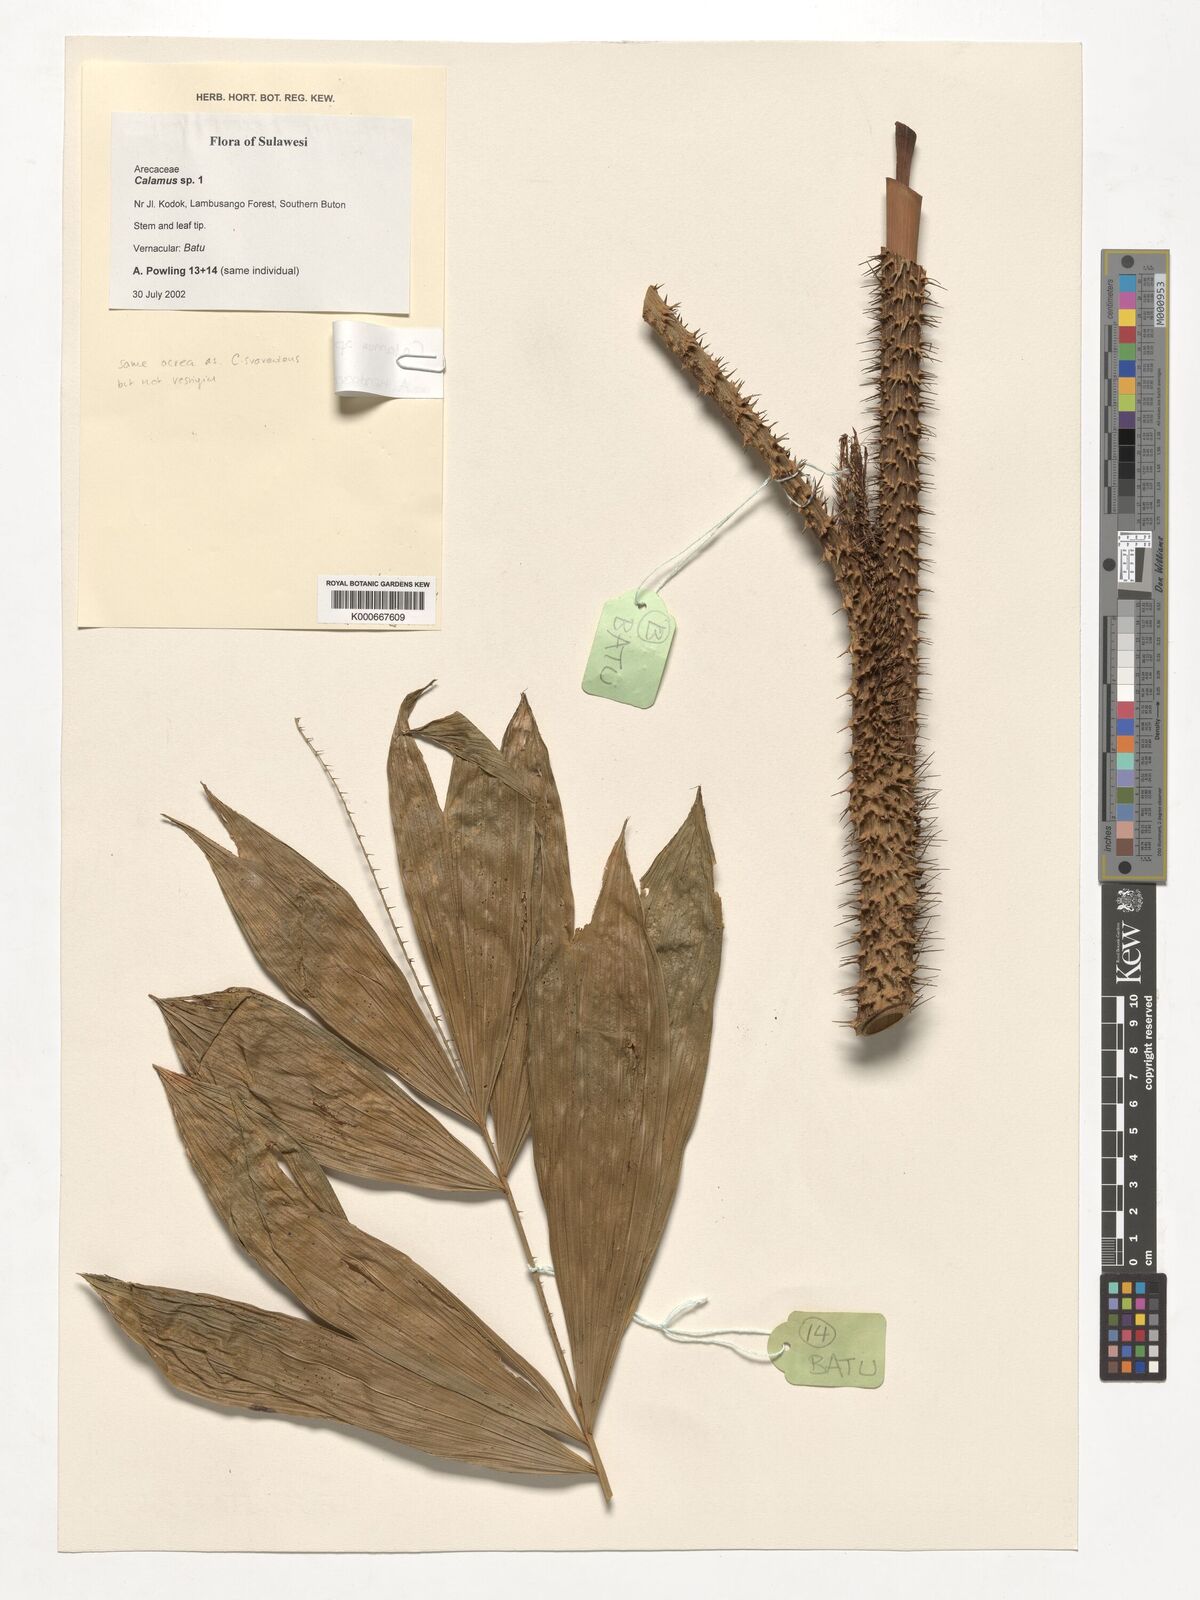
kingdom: Plantae
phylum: Tracheophyta
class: Liliopsida
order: Arecales
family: Arecaceae
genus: Calamus
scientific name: Calamus
